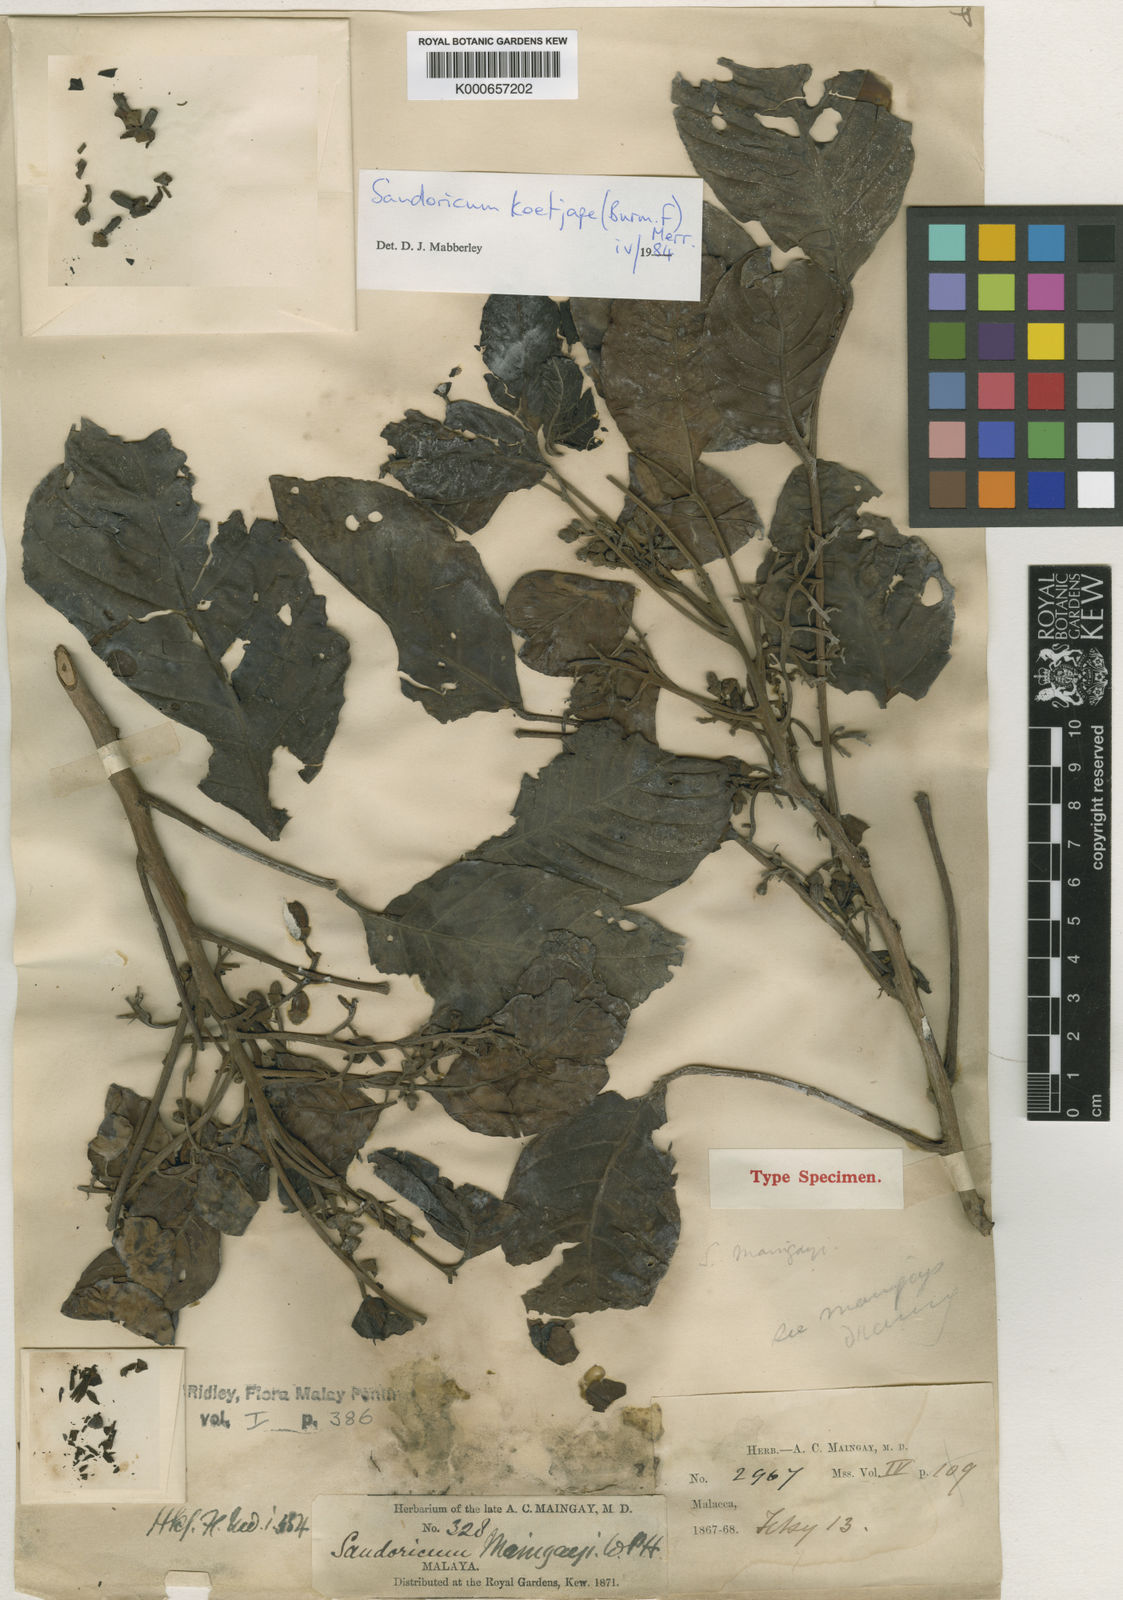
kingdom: Plantae
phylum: Tracheophyta
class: Magnoliopsida
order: Sapindales
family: Meliaceae
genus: Sandoricum
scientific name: Sandoricum koetjape
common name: Santol
